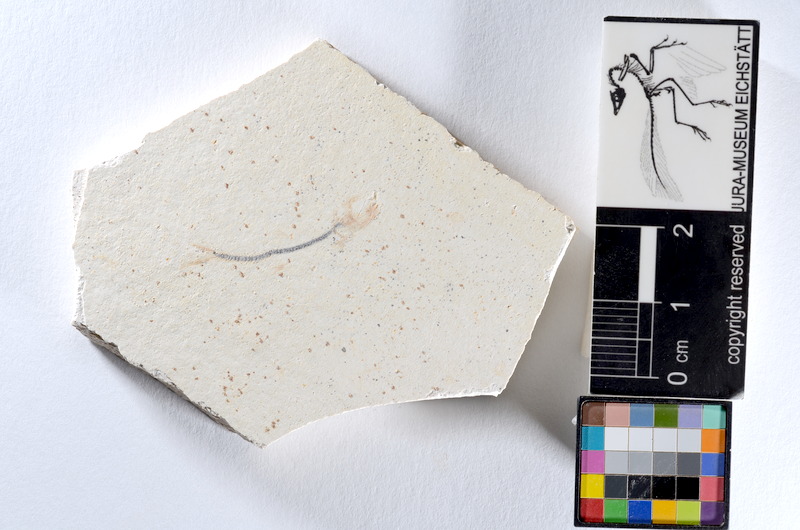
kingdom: Animalia
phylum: Chordata
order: Salmoniformes
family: Orthogonikleithridae
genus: Orthogonikleithrus
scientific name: Orthogonikleithrus hoelli
